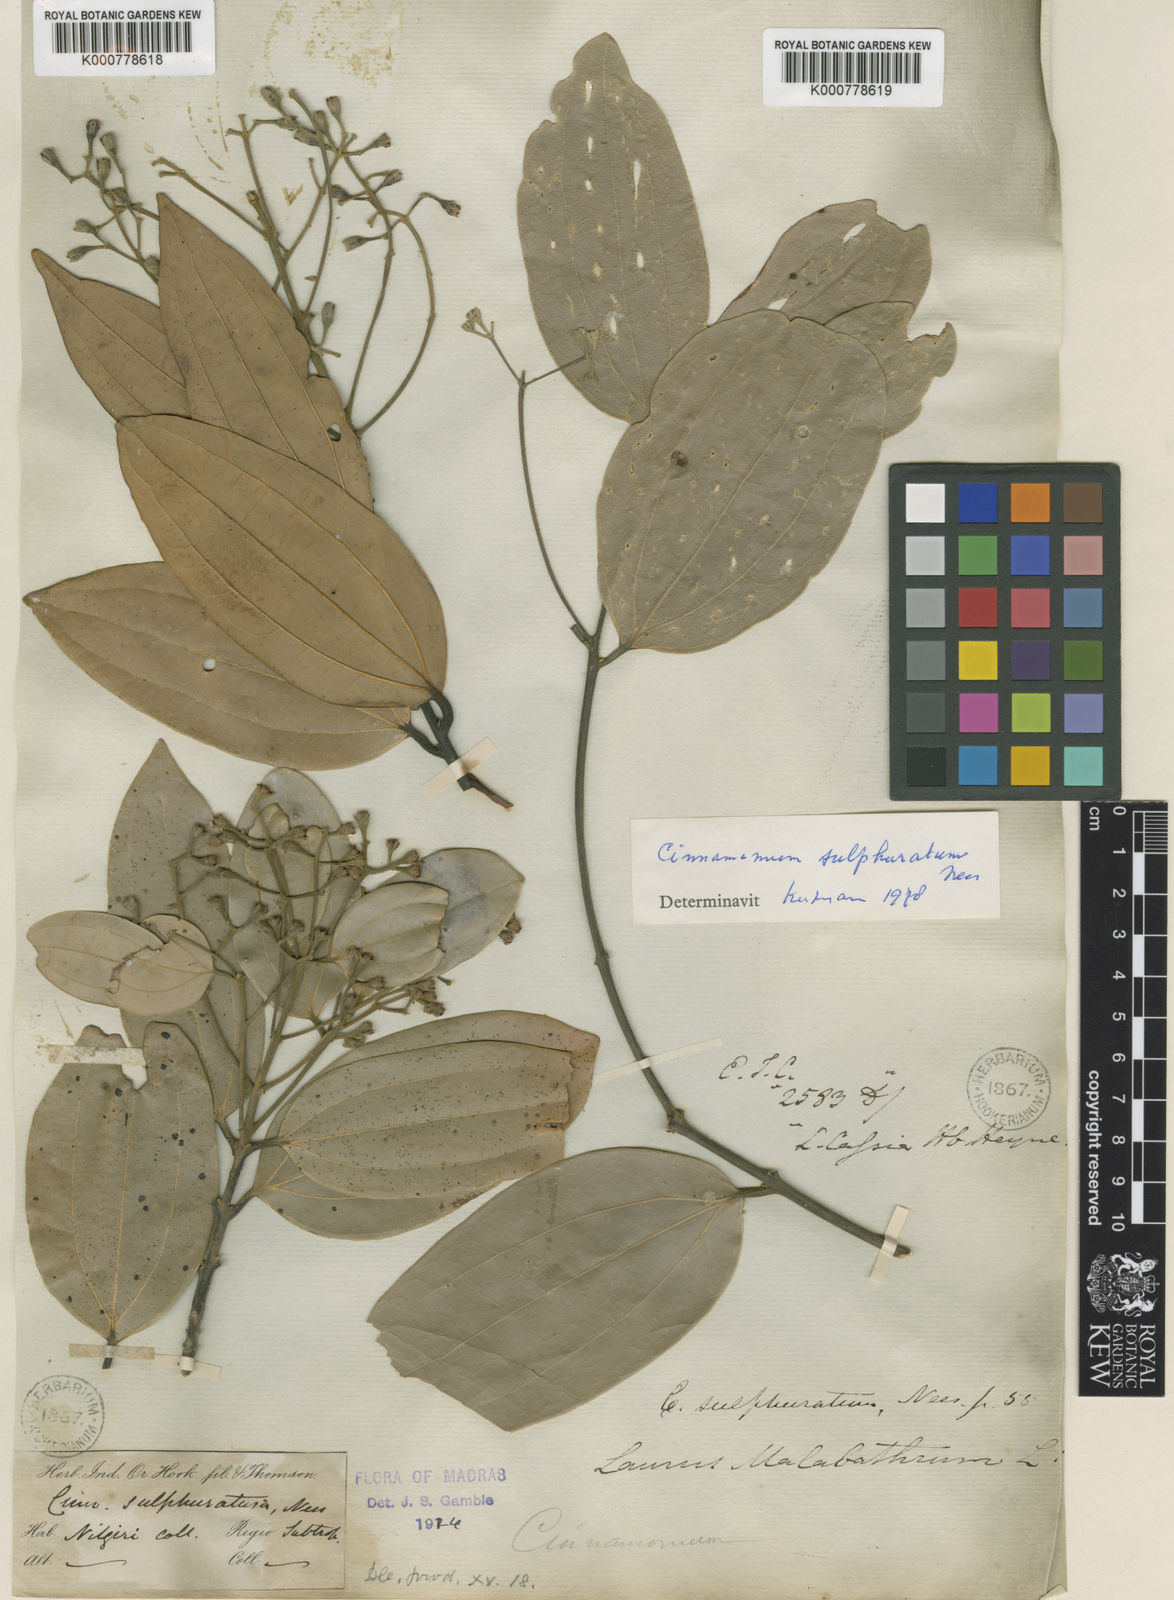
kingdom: Plantae
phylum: Tracheophyta
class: Magnoliopsida
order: Laurales
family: Lauraceae
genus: Cinnamomum
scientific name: Cinnamomum sulphuratum
